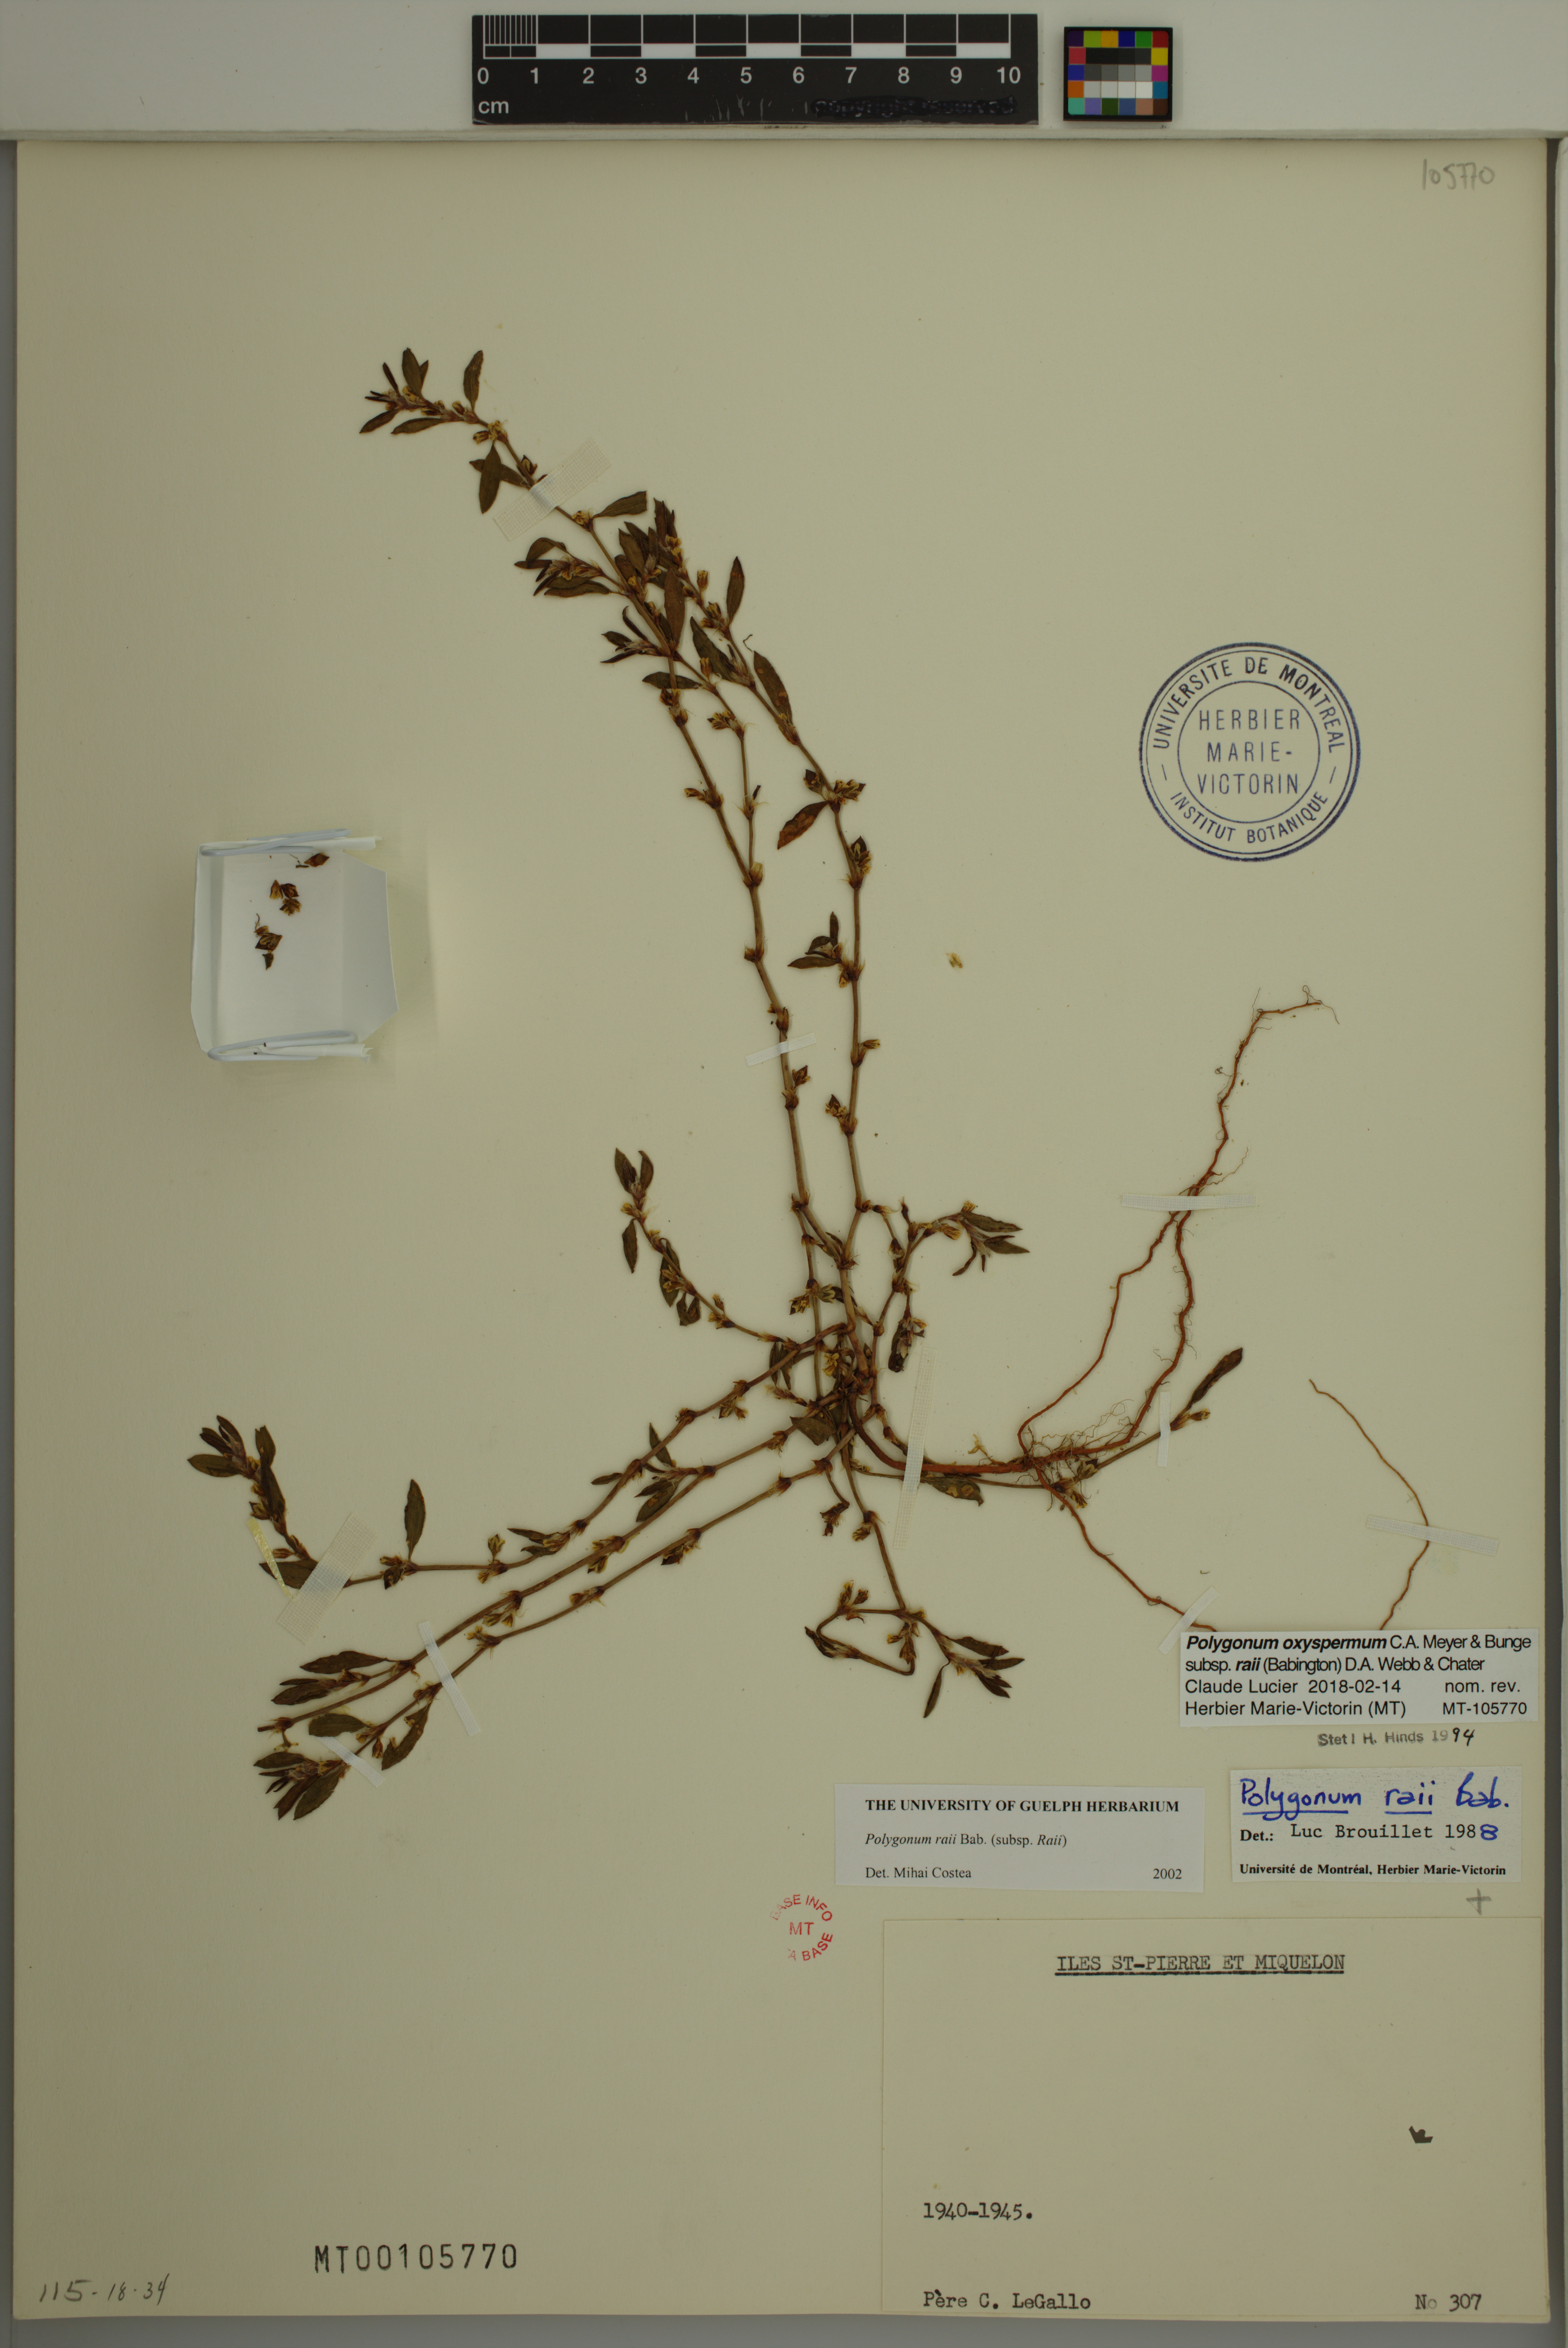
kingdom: Plantae
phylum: Tracheophyta
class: Magnoliopsida
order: Caryophyllales
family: Polygonaceae
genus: Polygonum
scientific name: Polygonum raii
